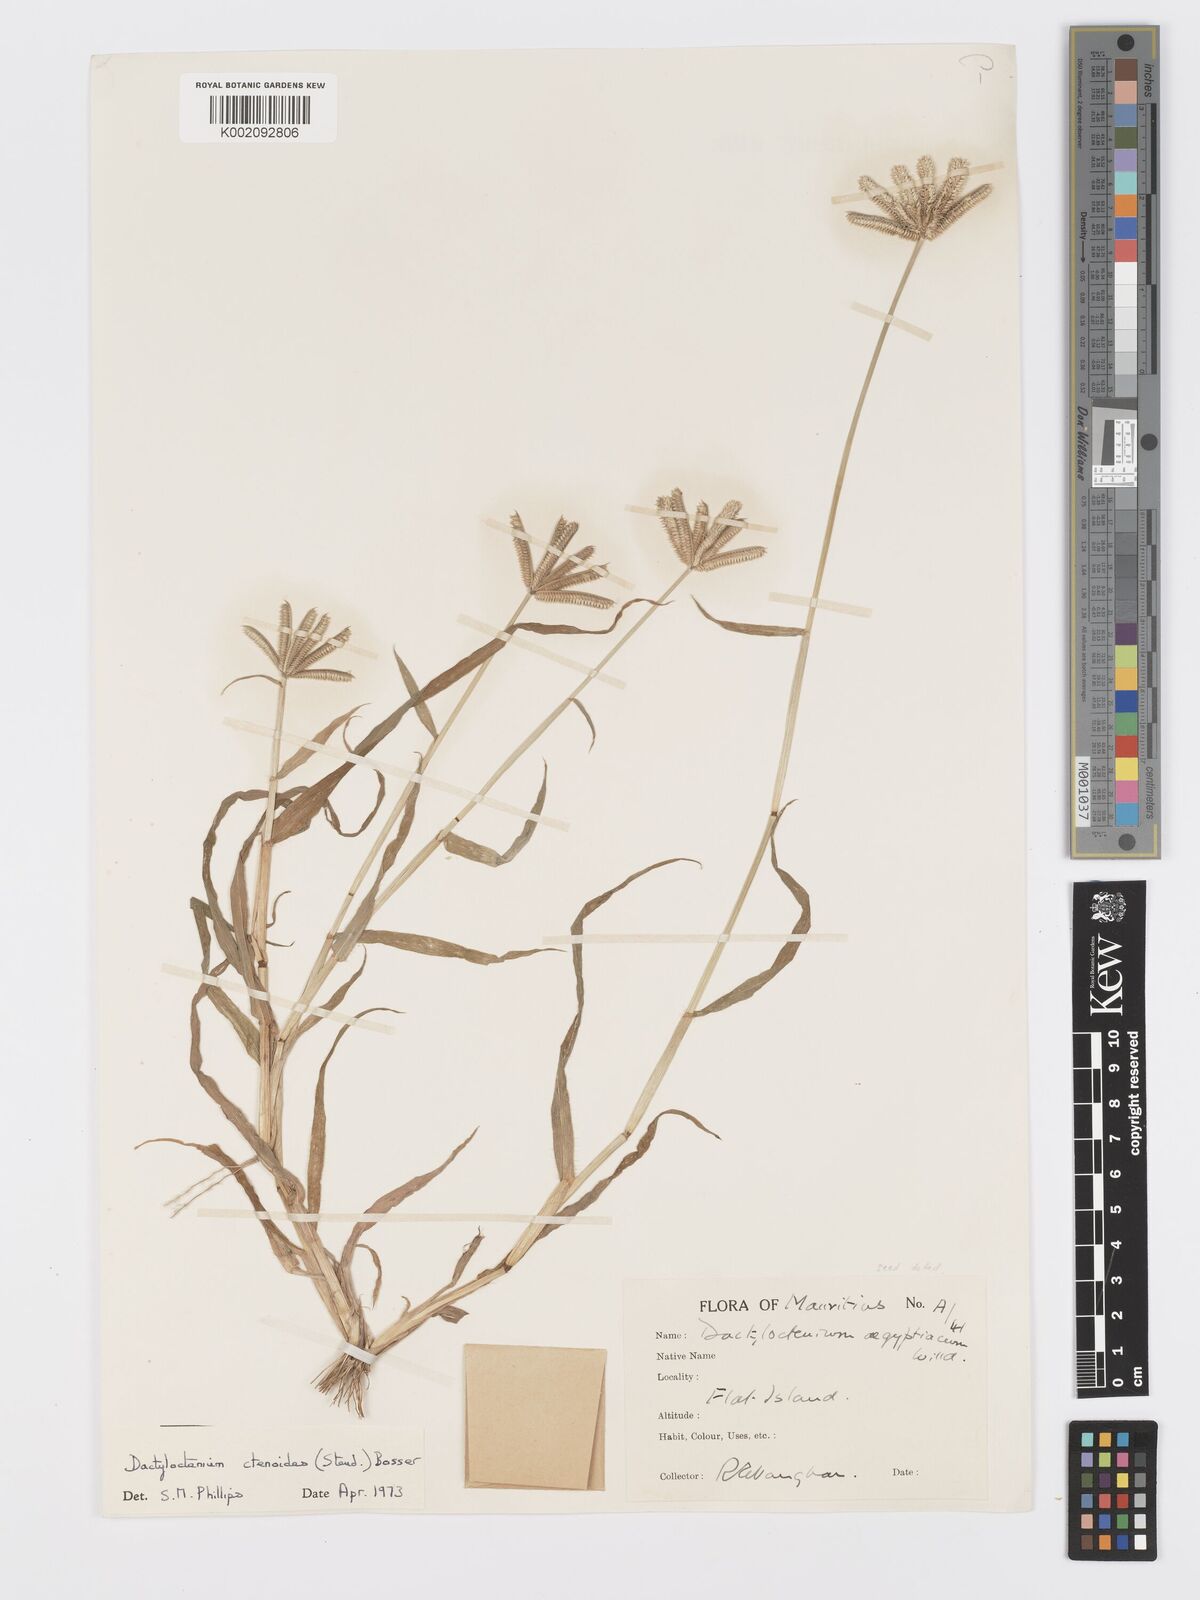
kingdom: Plantae
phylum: Tracheophyta
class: Liliopsida
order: Poales
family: Poaceae
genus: Dactyloctenium
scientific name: Dactyloctenium ctenoides
